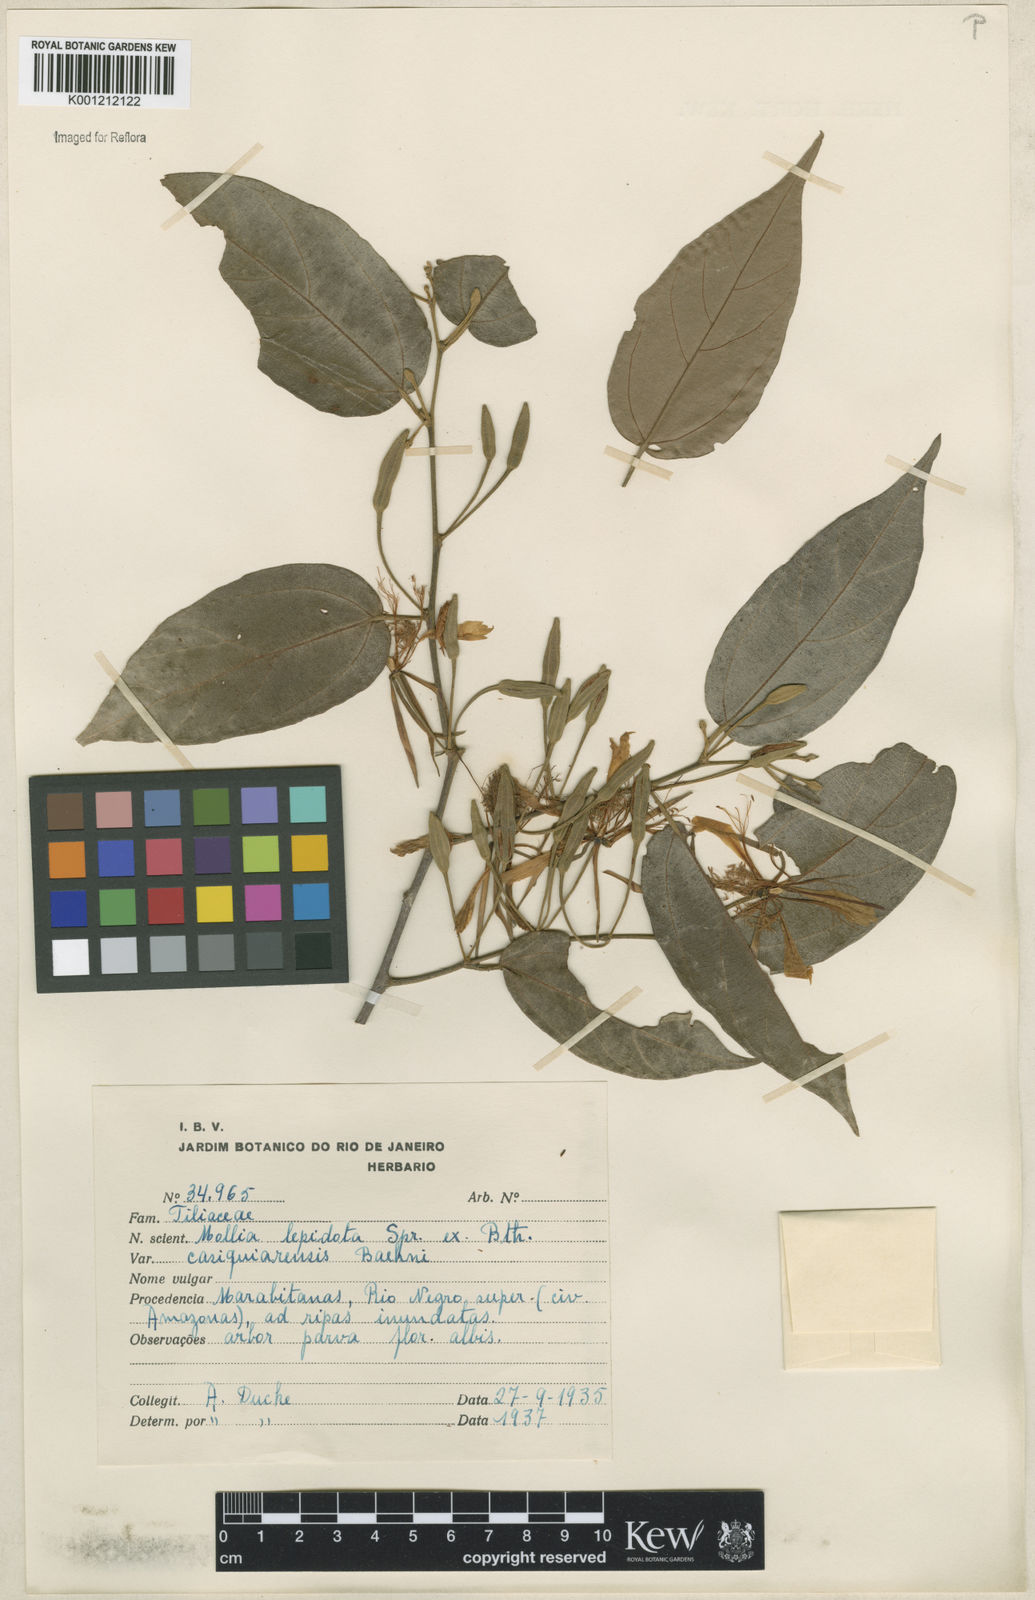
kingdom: Plantae
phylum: Tracheophyta
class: Magnoliopsida
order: Malvales
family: Malvaceae
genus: Mollia
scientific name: Mollia lepidota
